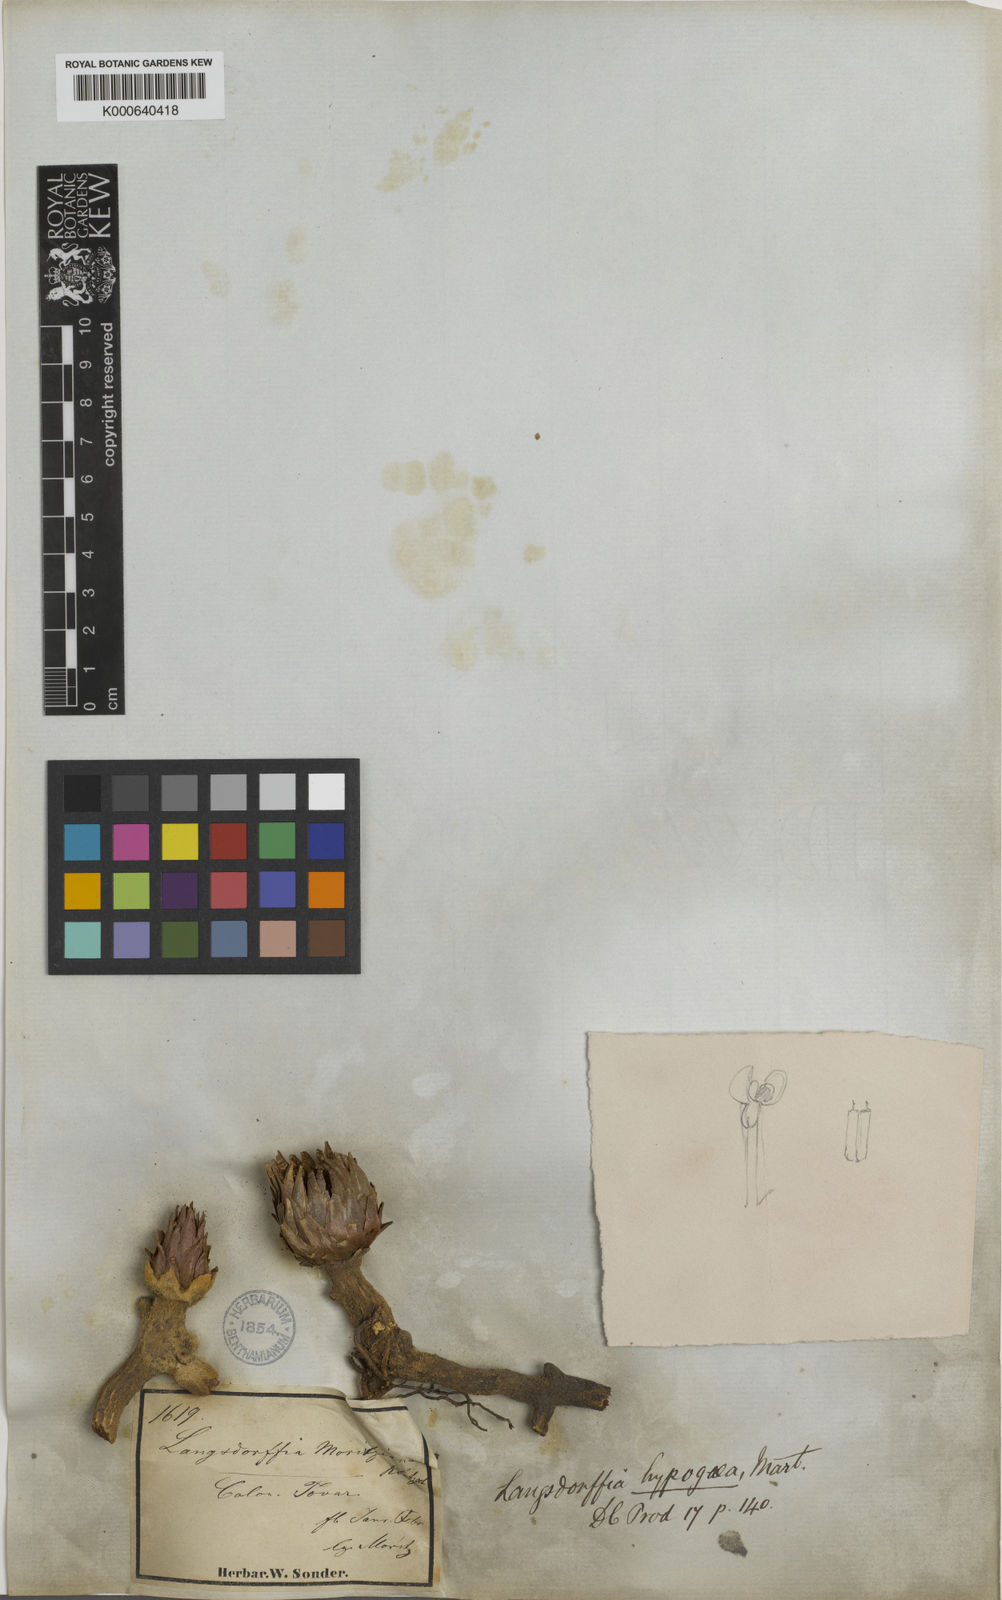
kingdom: Plantae
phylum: Tracheophyta
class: Magnoliopsida
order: Santalales
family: Balanophoraceae
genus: Langsdorffia
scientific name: Langsdorffia hypogaea
